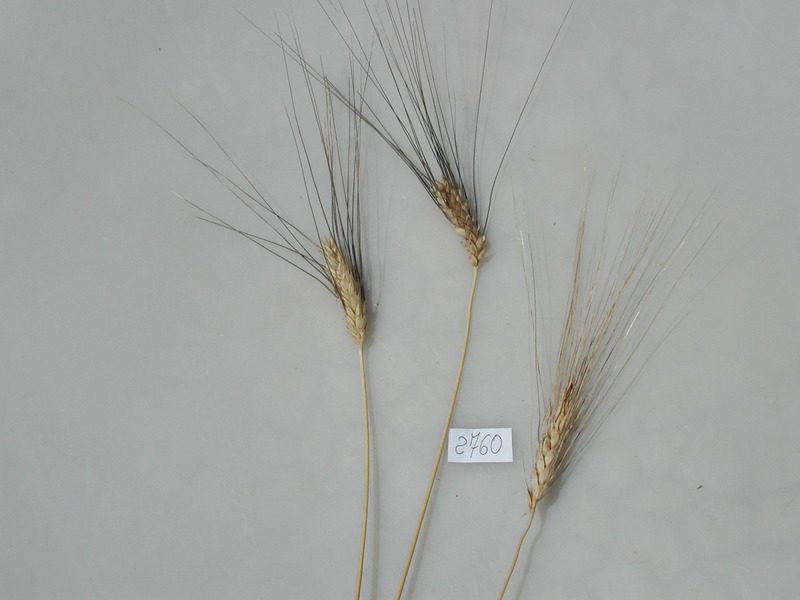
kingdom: Plantae
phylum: Tracheophyta
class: Liliopsida
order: Poales
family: Poaceae
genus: Triticum
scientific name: Triticum turgidum
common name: Wheat
